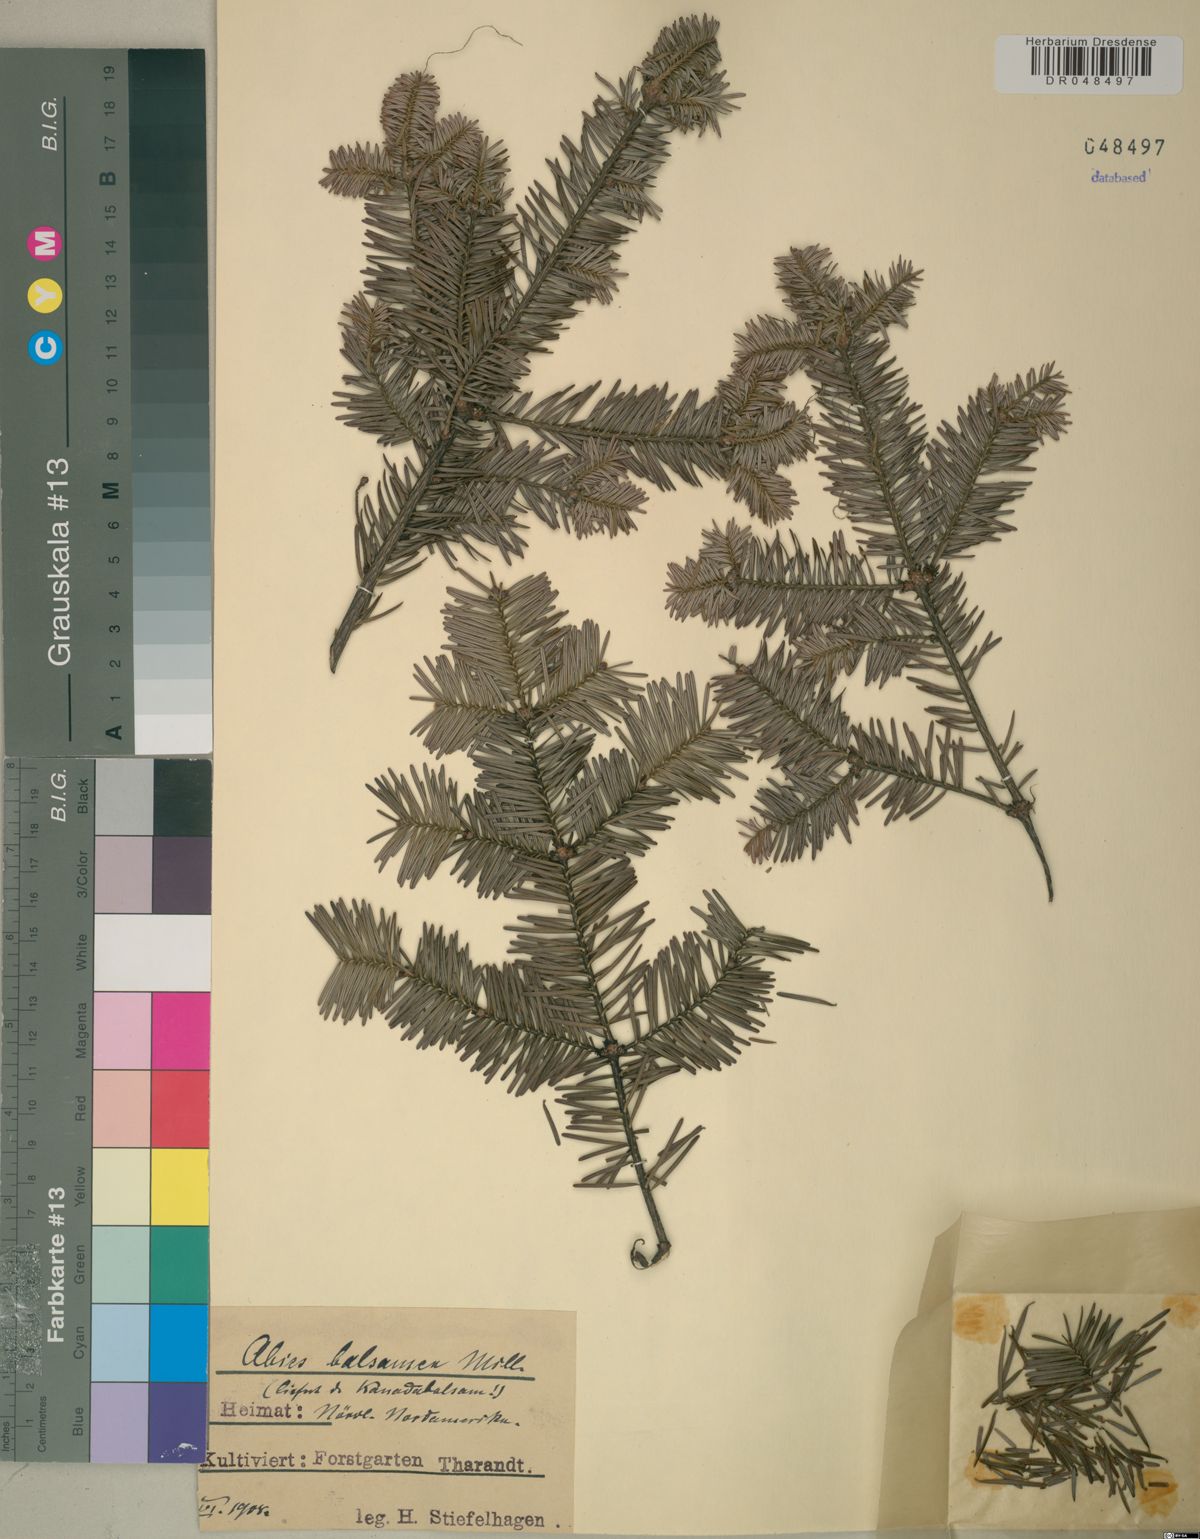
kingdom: Plantae
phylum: Tracheophyta
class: Pinopsida
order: Pinales
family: Pinaceae
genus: Abies
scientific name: Abies balsamea
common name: Balsam fir
